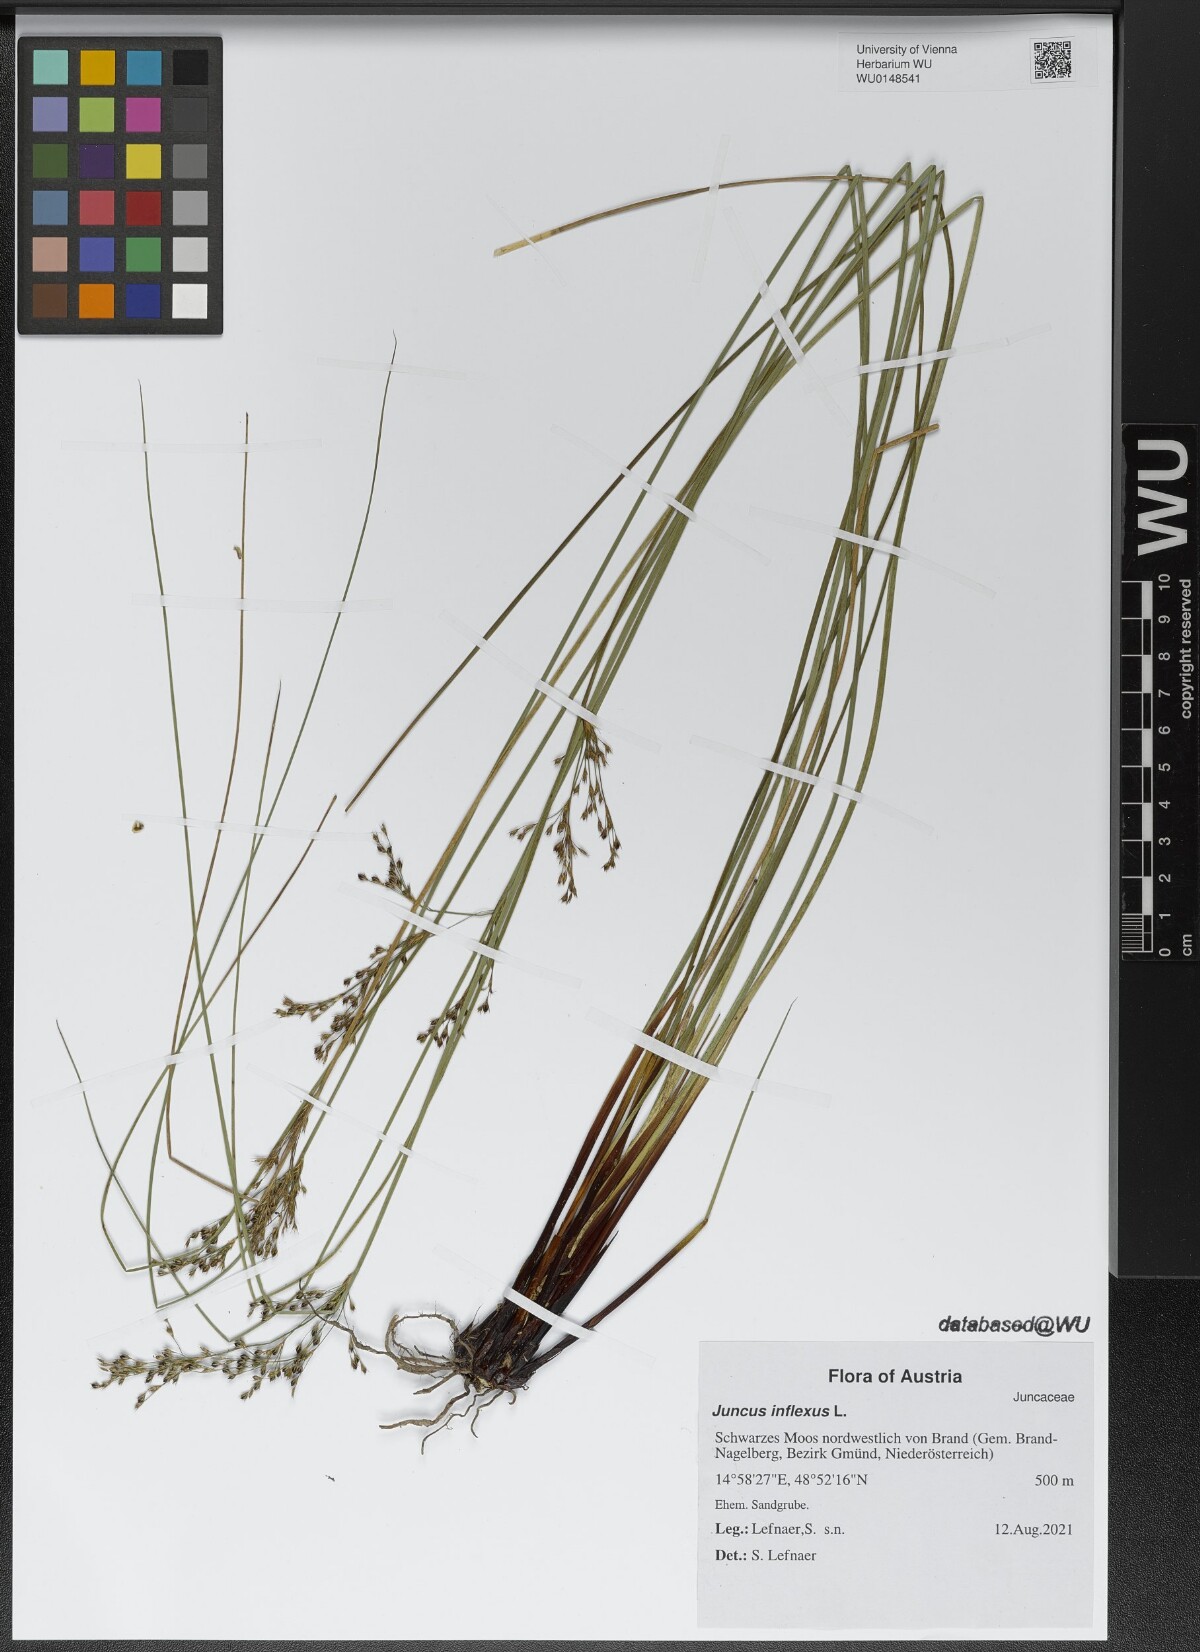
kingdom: Plantae
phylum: Tracheophyta
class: Liliopsida
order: Poales
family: Juncaceae
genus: Juncus
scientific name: Juncus inflexus
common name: Hard rush
